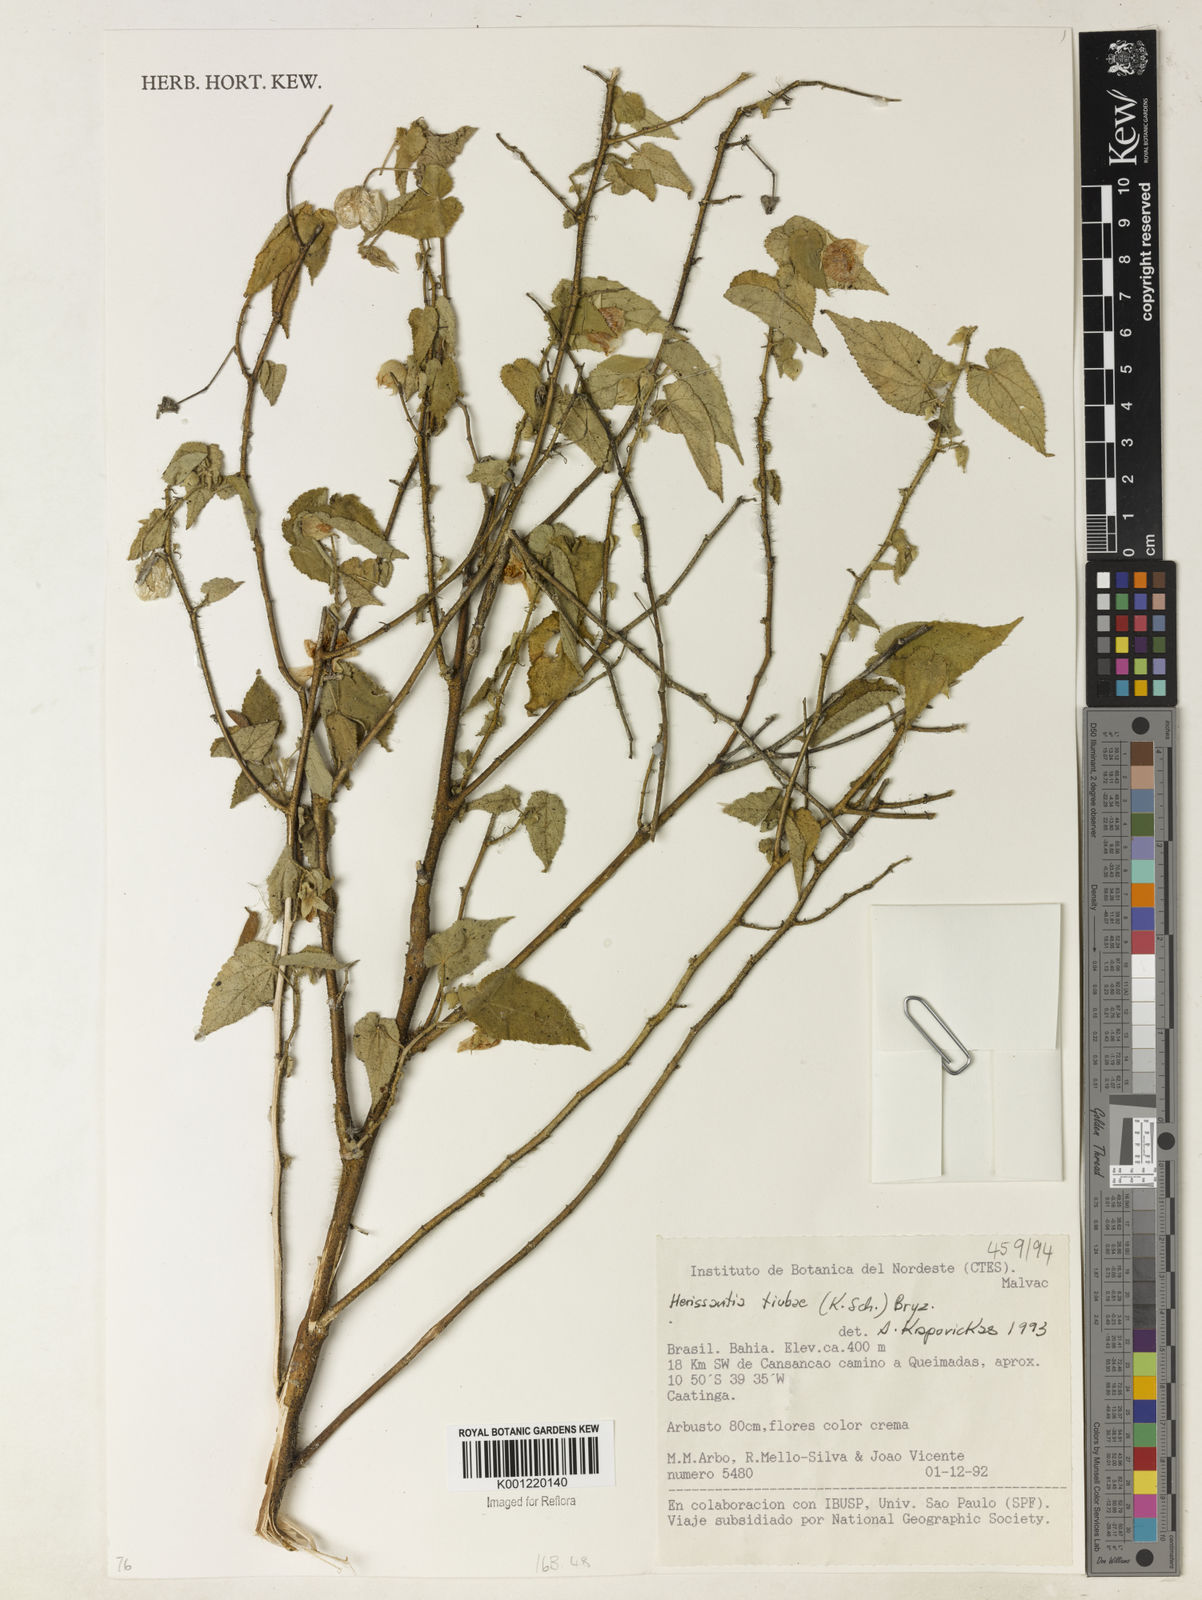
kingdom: Plantae
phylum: Tracheophyta
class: Magnoliopsida
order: Malvales
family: Malvaceae
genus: Herissantia
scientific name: Herissantia tiubae
